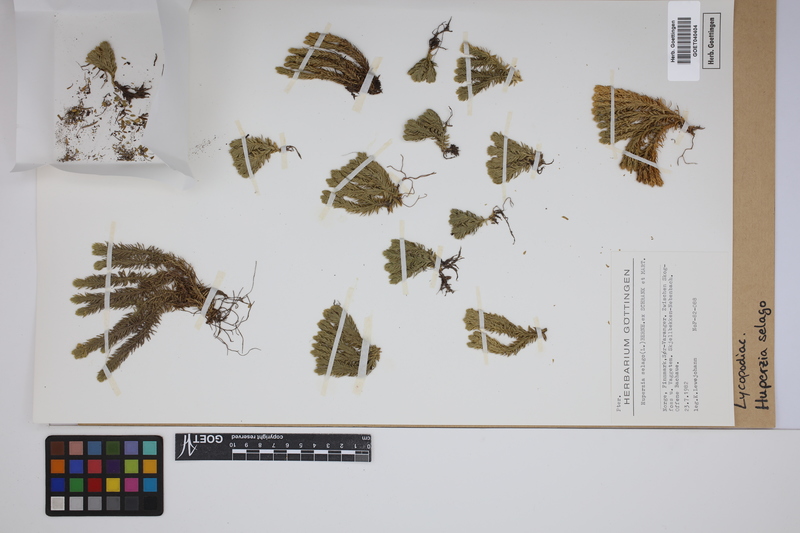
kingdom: Plantae
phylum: Tracheophyta
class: Lycopodiopsida
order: Lycopodiales
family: Lycopodiaceae
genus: Huperzia
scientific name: Huperzia selago
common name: Northern firmoss
